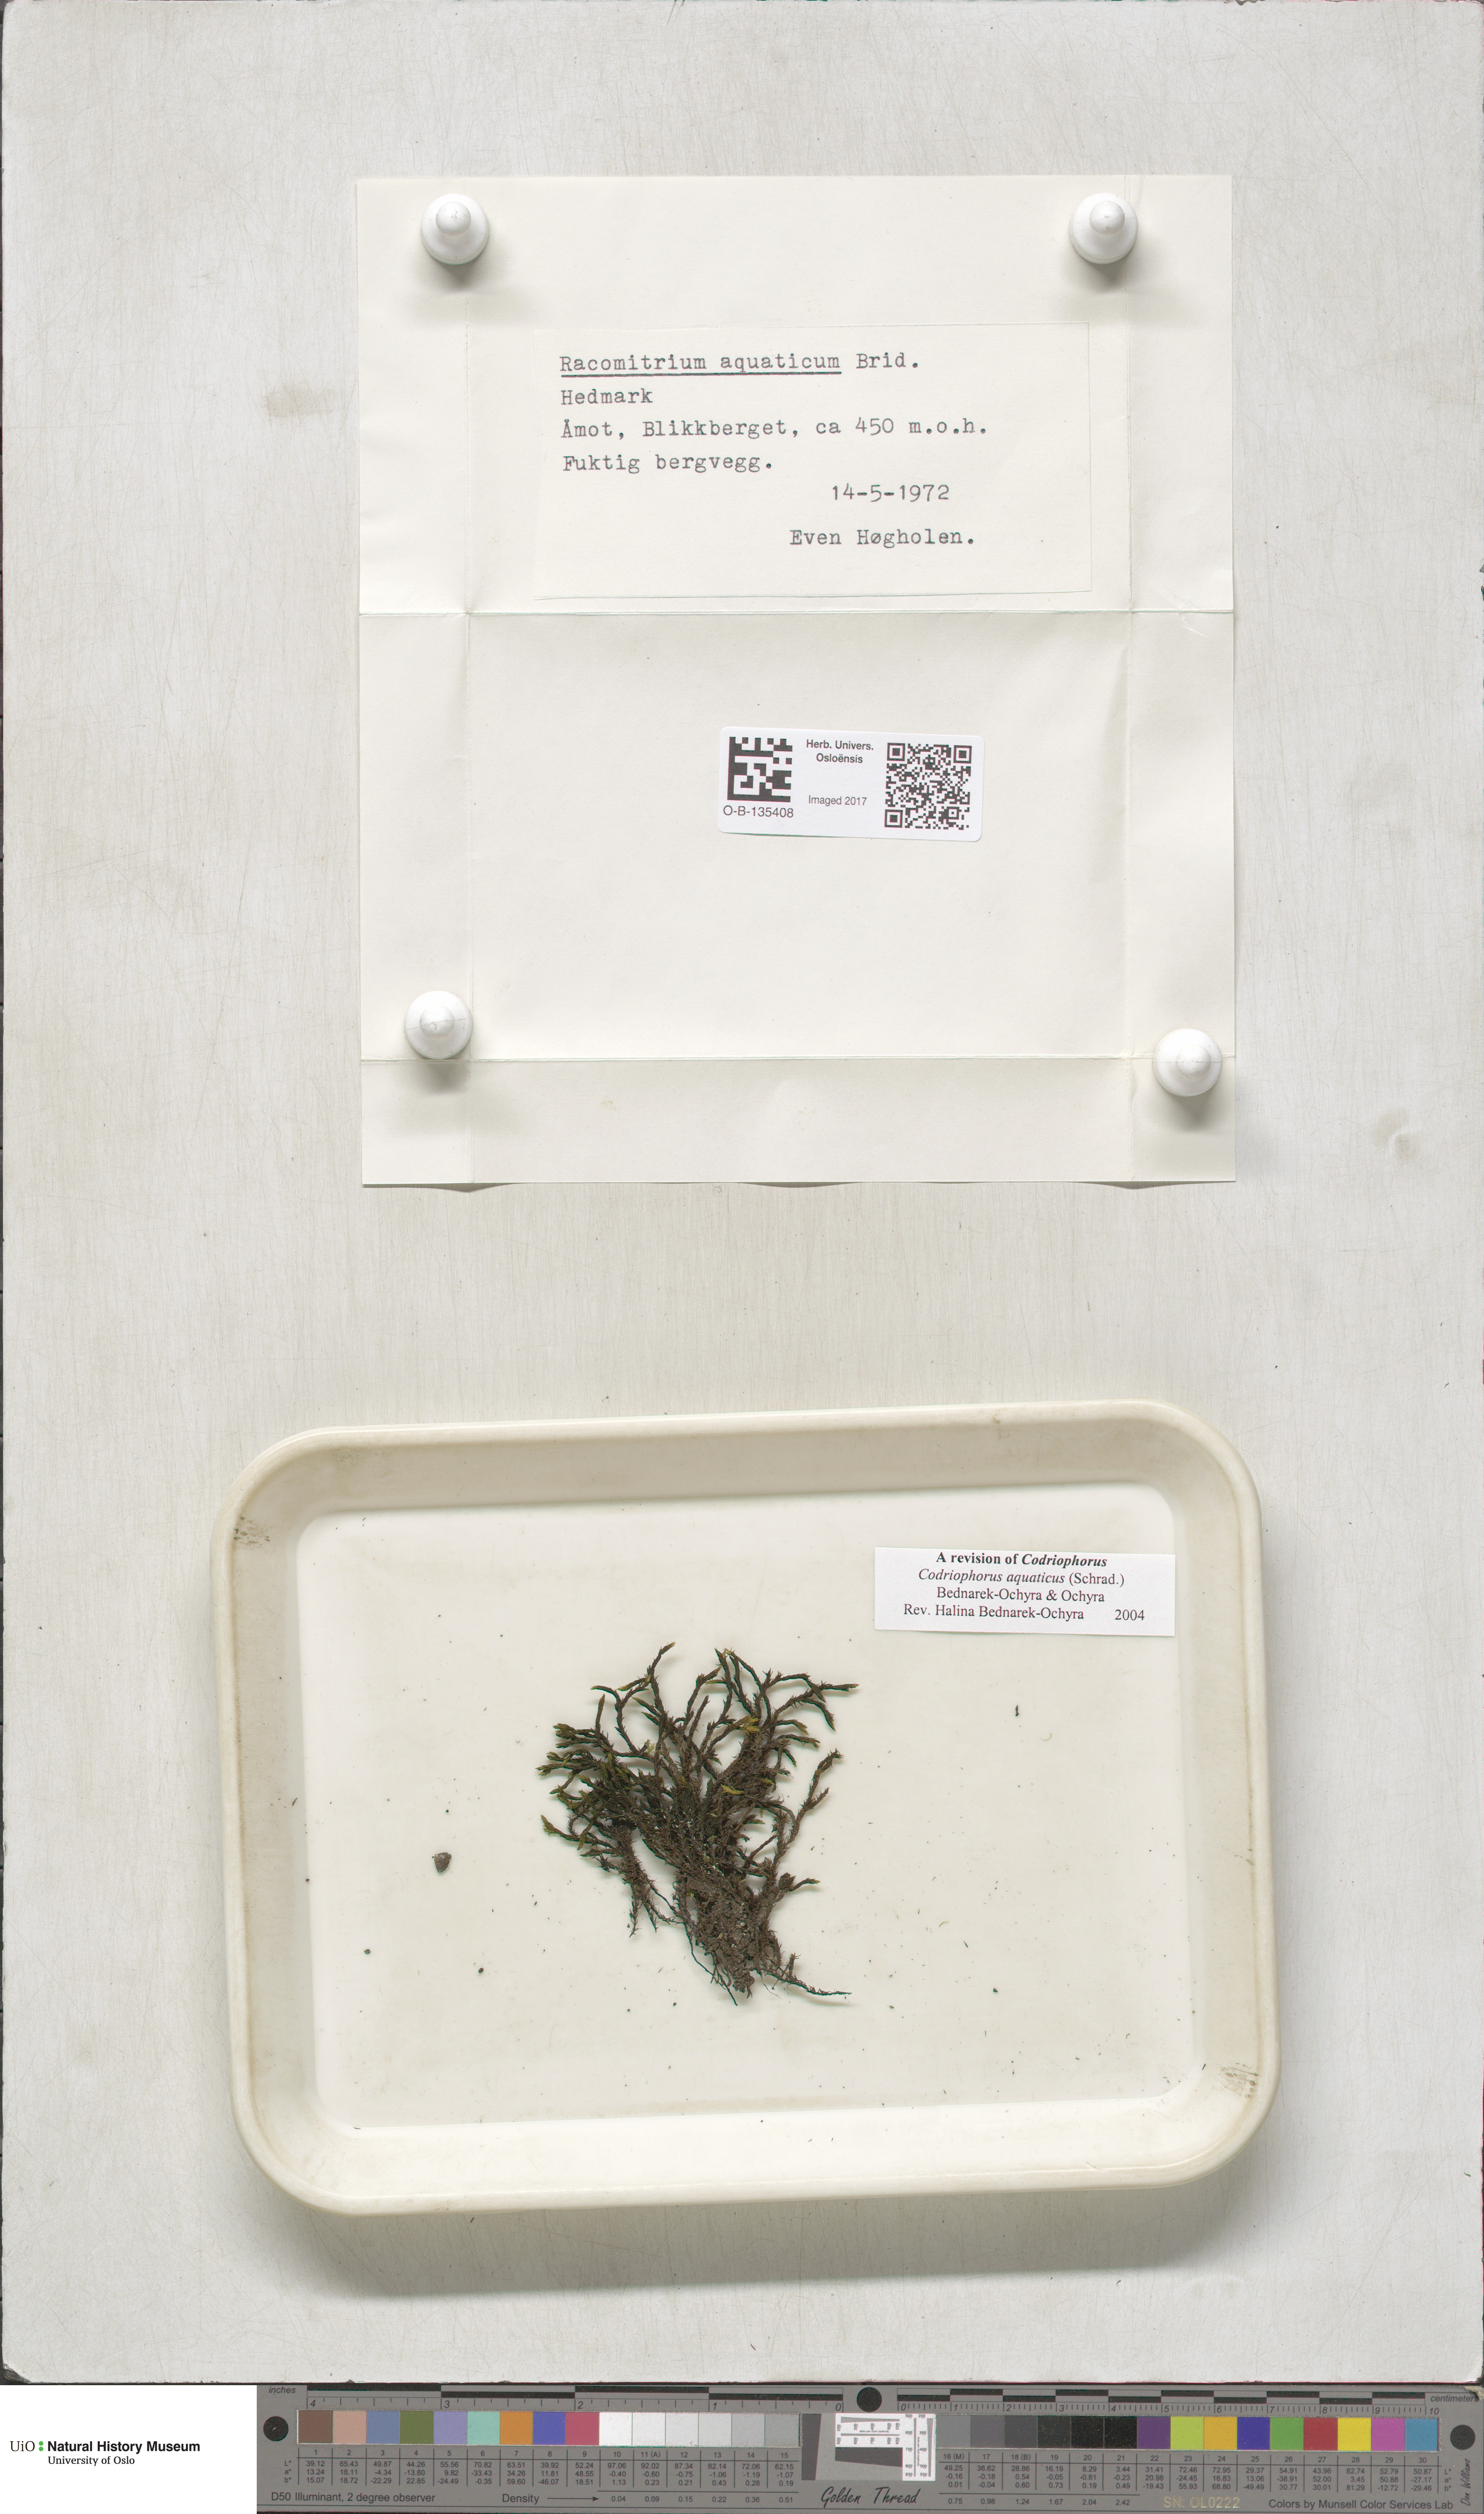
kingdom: Plantae
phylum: Bryophyta
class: Bryopsida
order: Grimmiales
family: Grimmiaceae
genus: Codriophorus
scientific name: Codriophorus aquaticus
